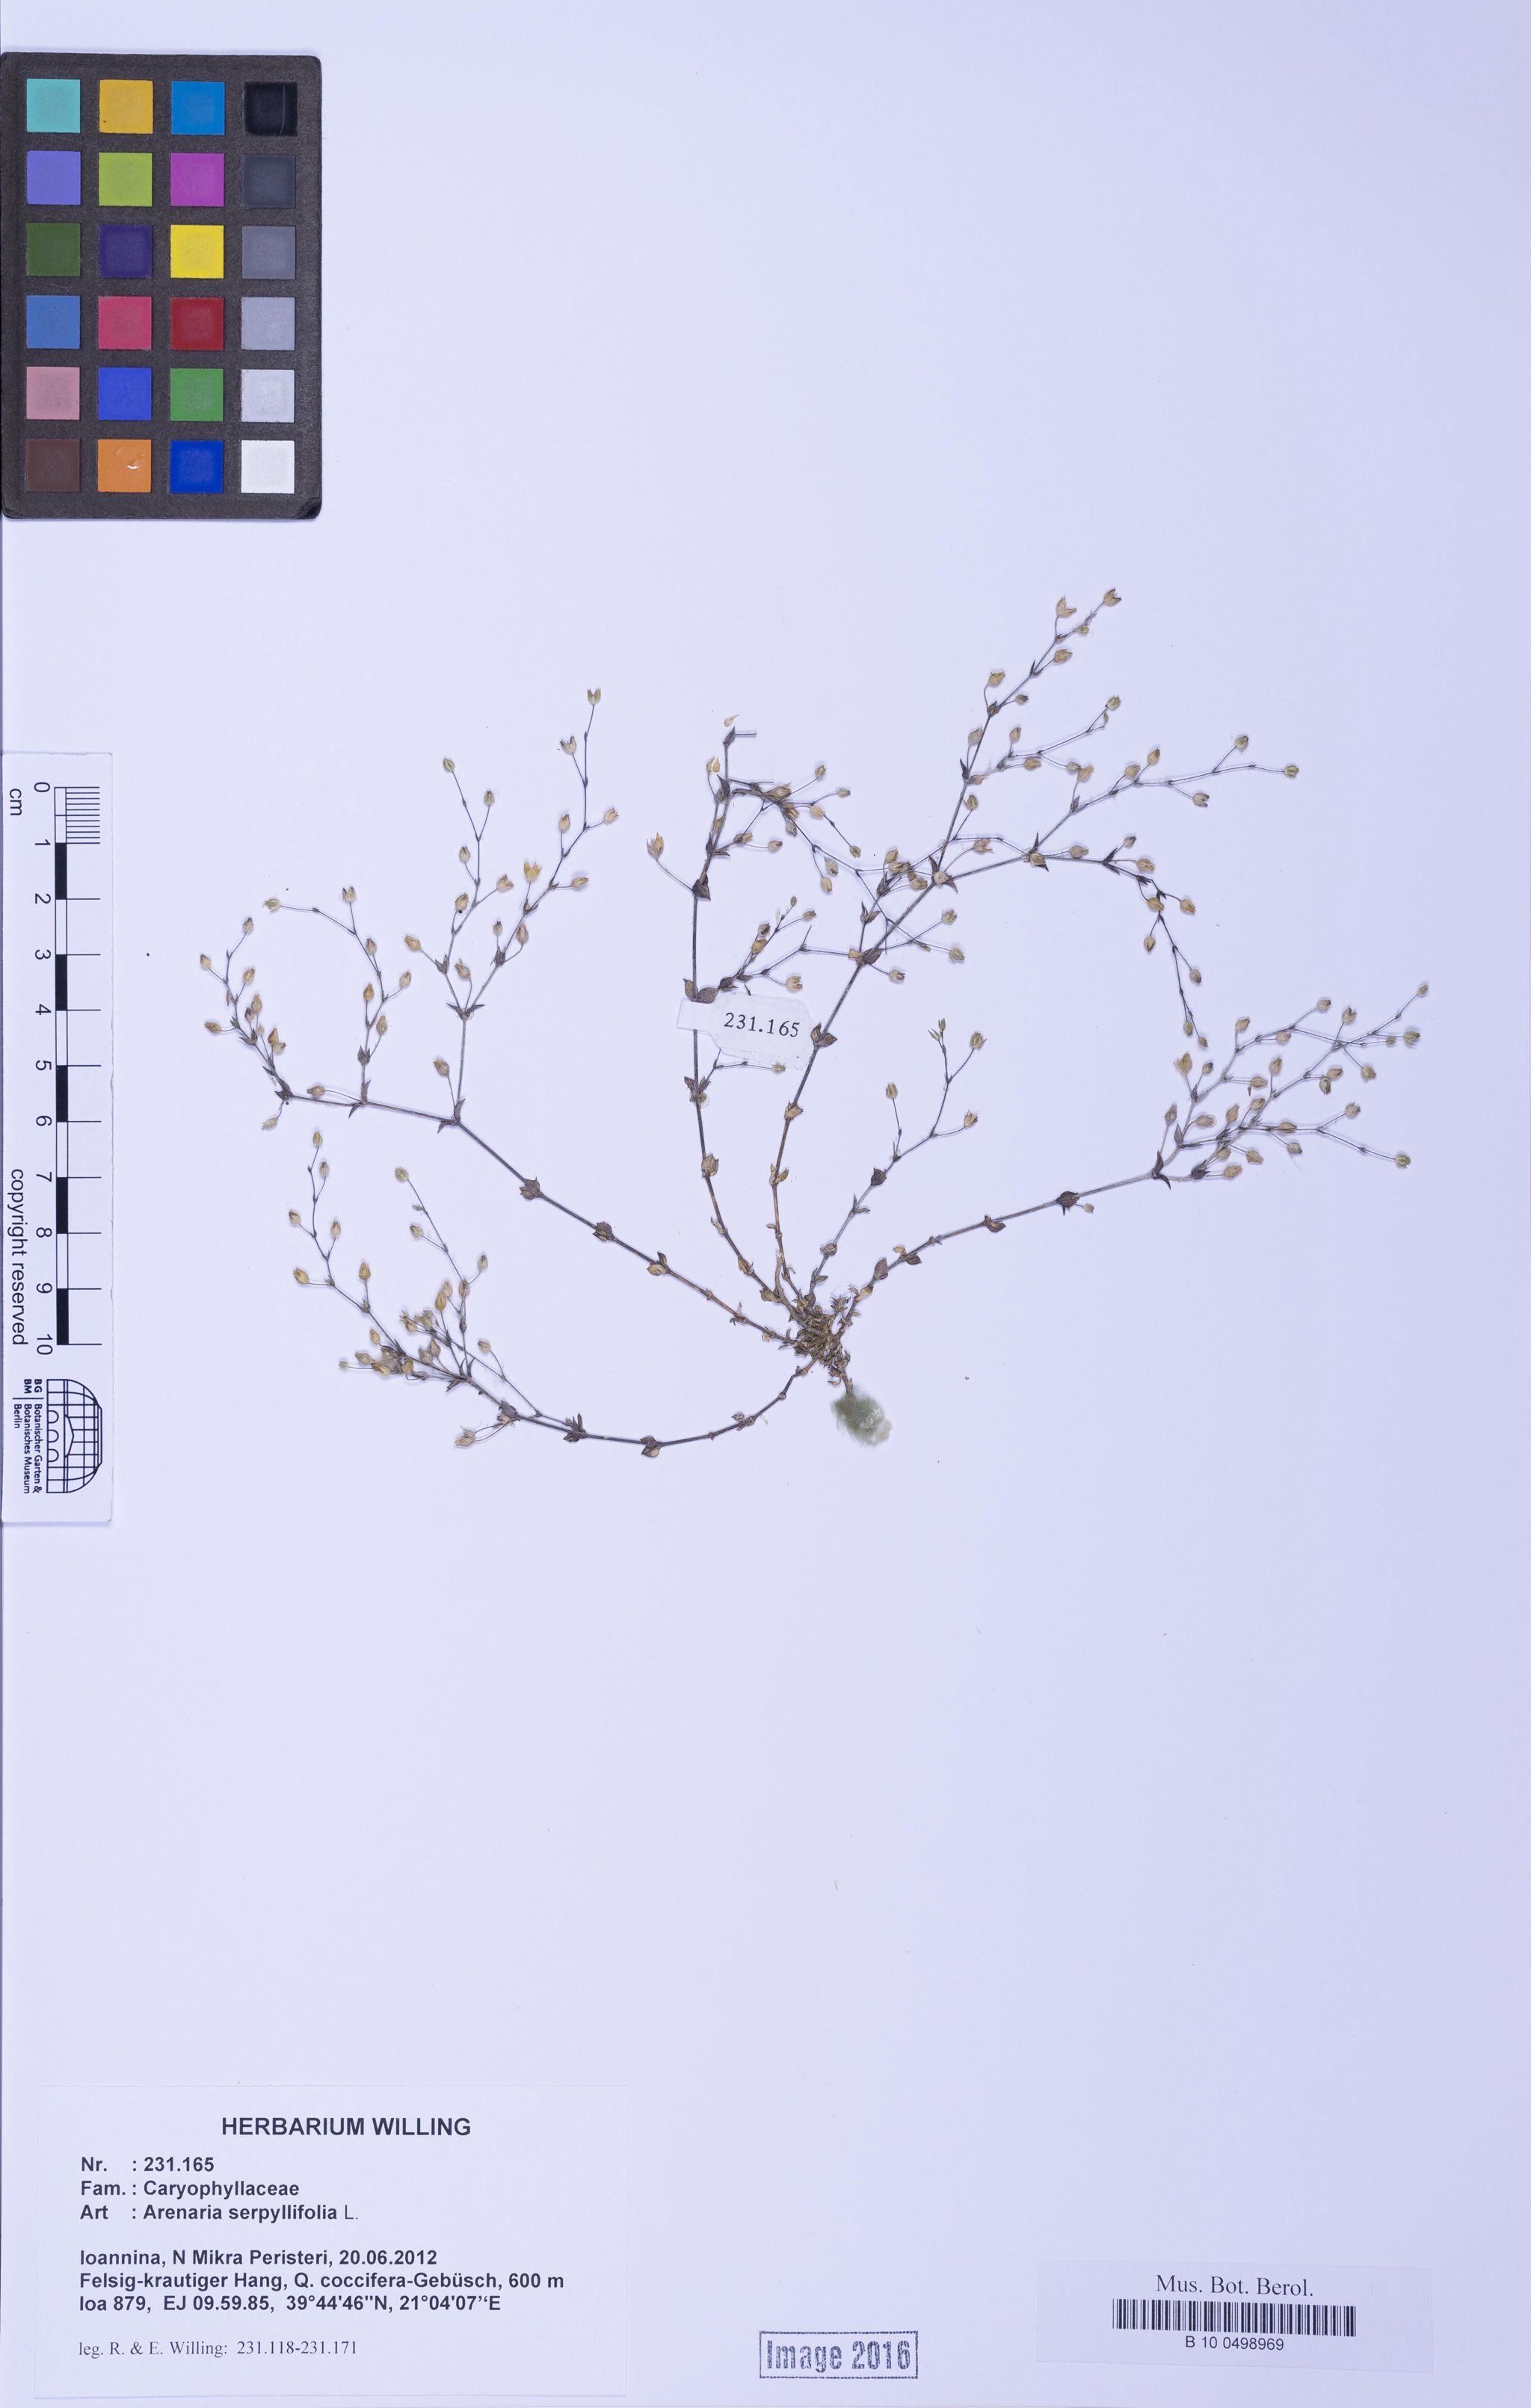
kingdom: Plantae
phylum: Tracheophyta
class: Magnoliopsida
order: Caryophyllales
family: Caryophyllaceae
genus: Arenaria
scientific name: Arenaria serpyllifolia
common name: Thyme-leaved sandwort
